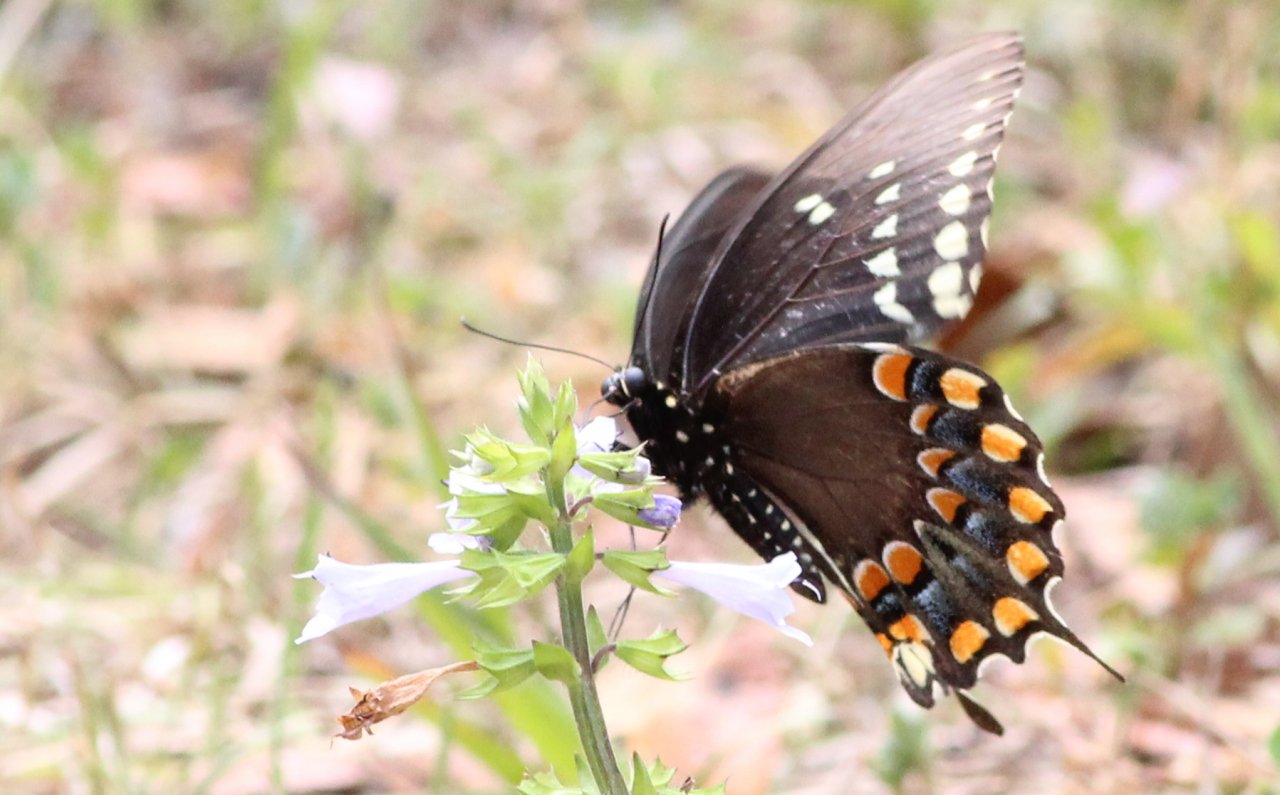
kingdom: Animalia
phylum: Arthropoda
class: Insecta
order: Lepidoptera
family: Papilionidae
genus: Pterourus
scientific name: Pterourus troilus
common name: Spicebush Swallowtail
